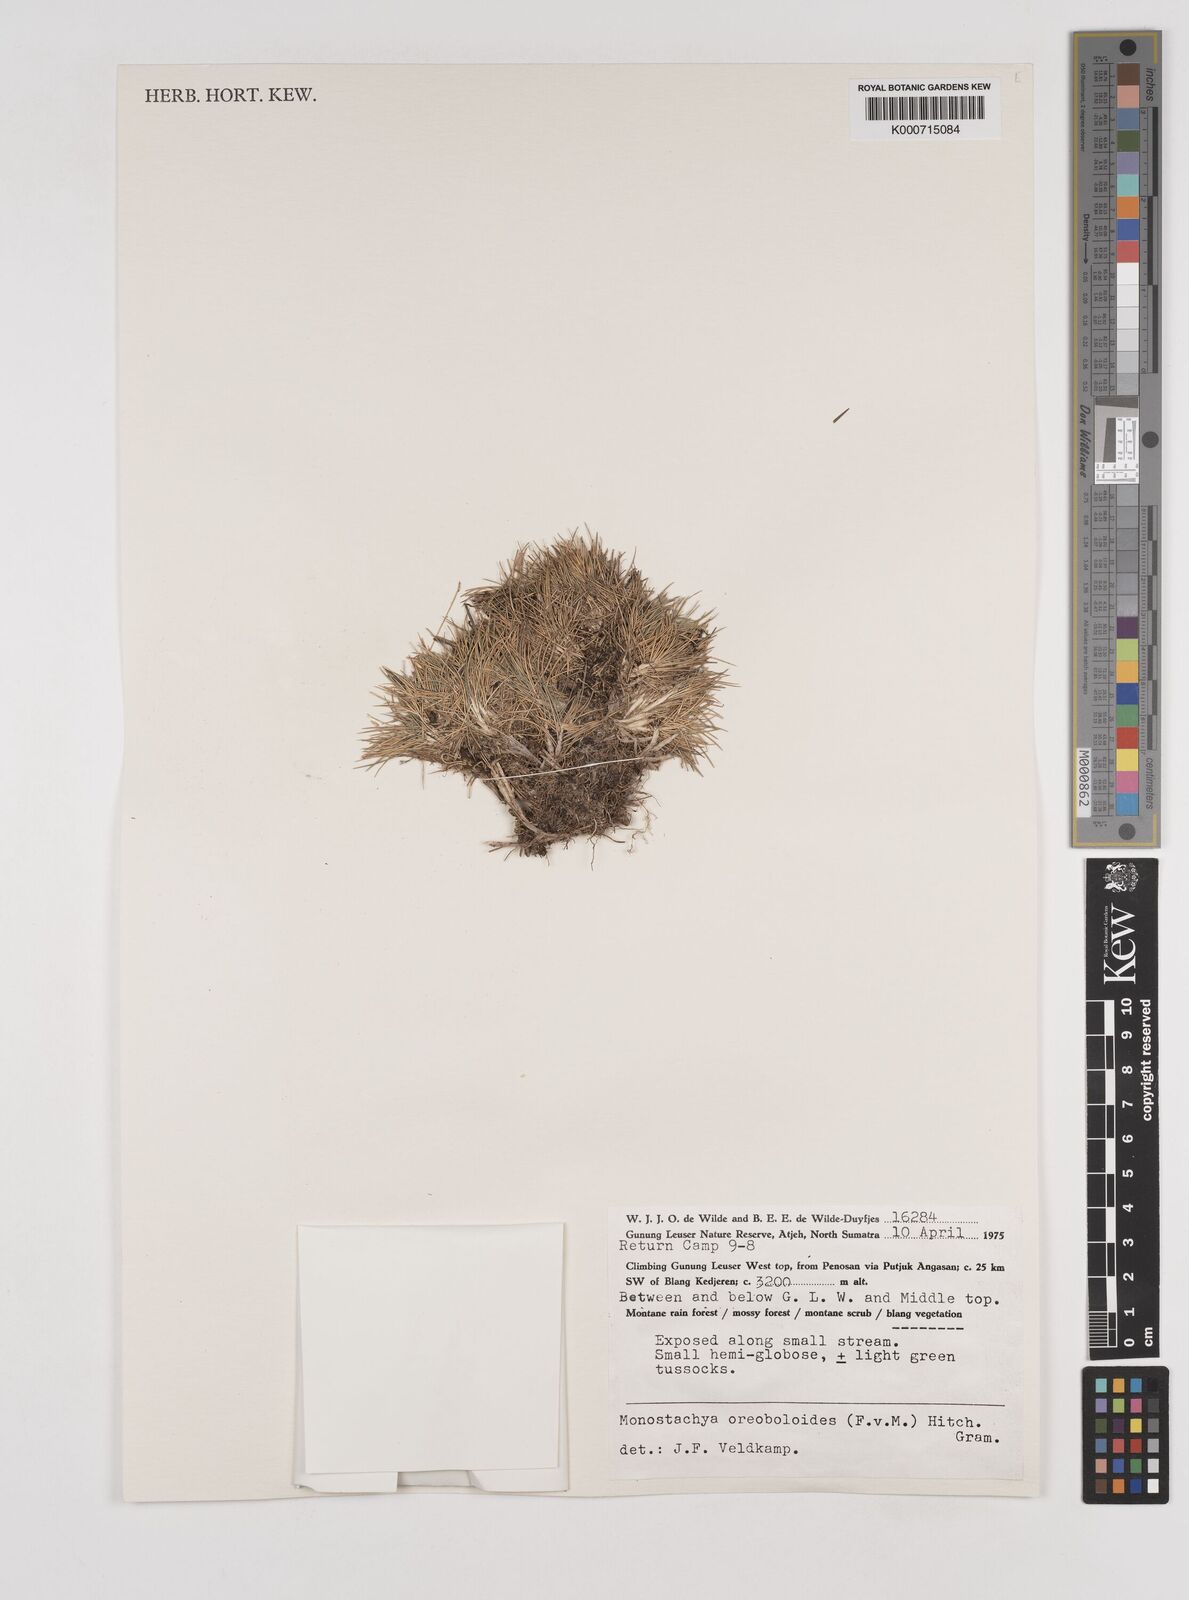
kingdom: Plantae
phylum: Tracheophyta
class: Liliopsida
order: Poales
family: Poaceae
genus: Rytidosperma
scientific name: Rytidosperma oreoboloides
